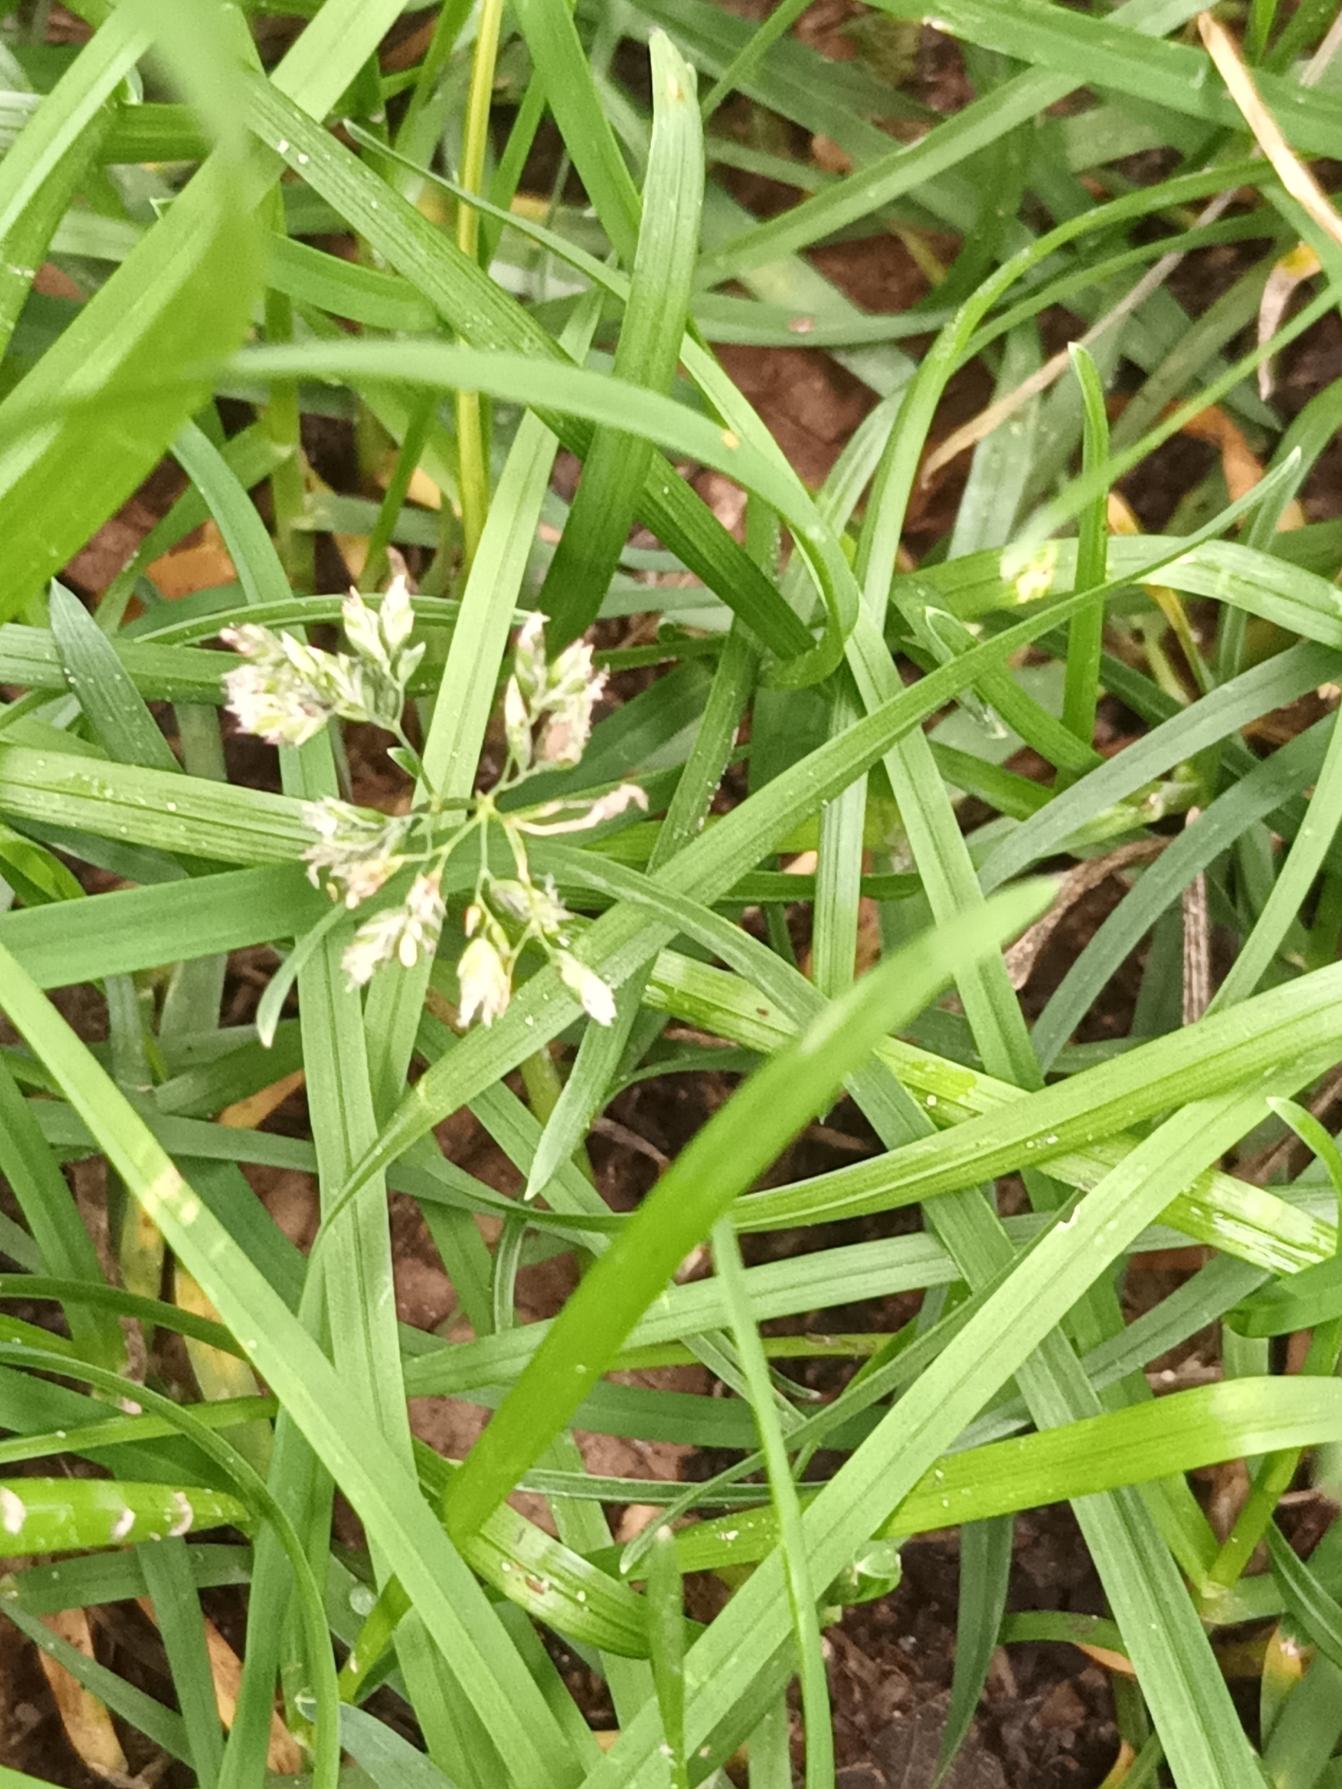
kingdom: Plantae
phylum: Tracheophyta
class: Liliopsida
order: Poales
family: Poaceae
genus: Poa
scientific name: Poa annua
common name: Enårig rapgræs
